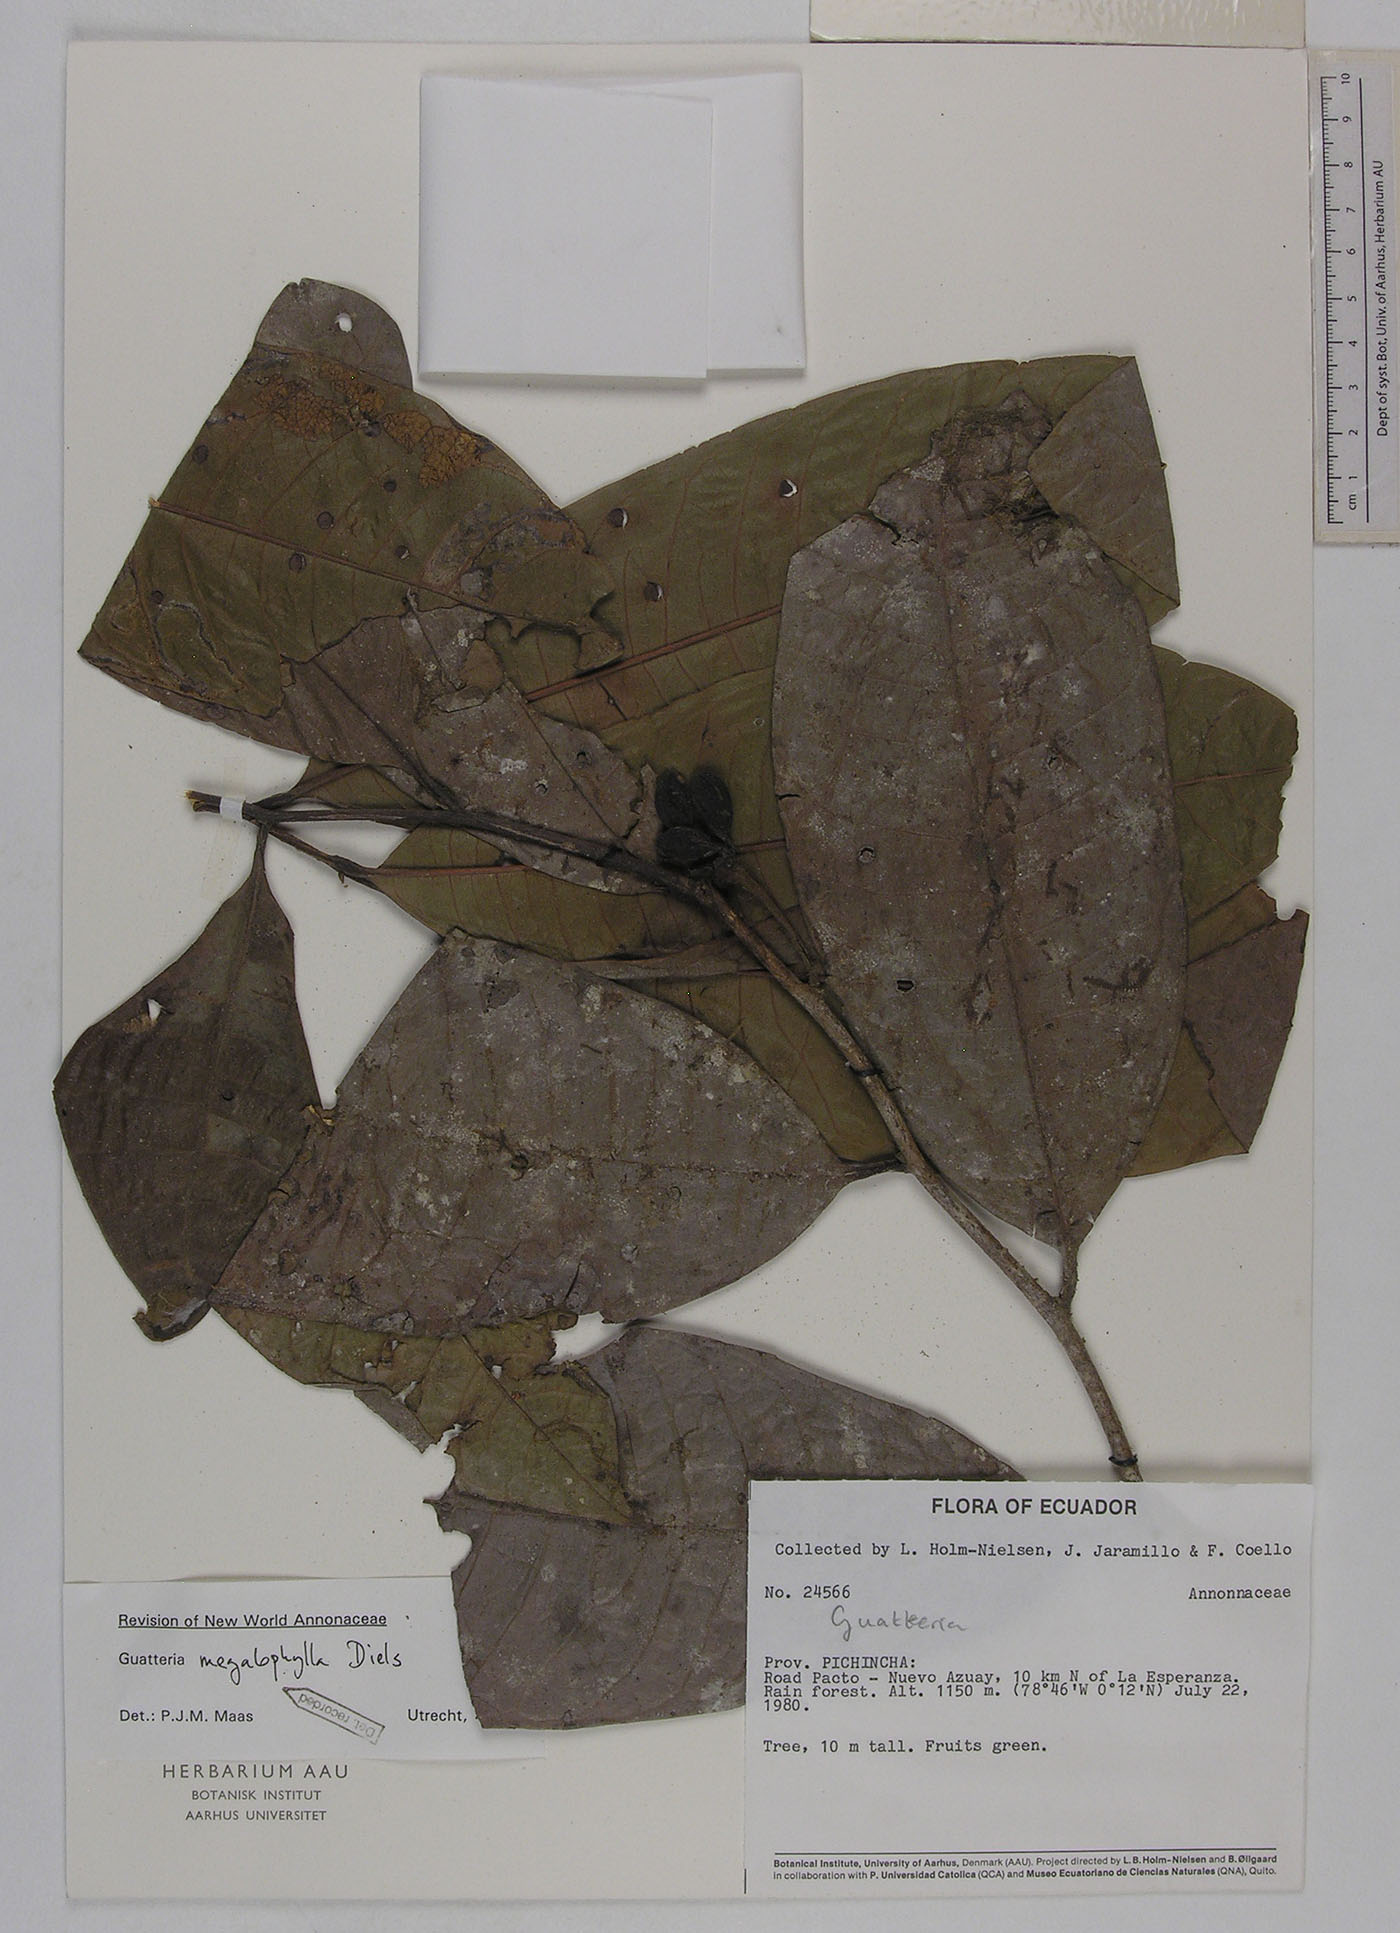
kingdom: Plantae
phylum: Tracheophyta
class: Magnoliopsida
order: Magnoliales
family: Annonaceae
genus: Guatteria
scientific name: Guatteria pichinchae
